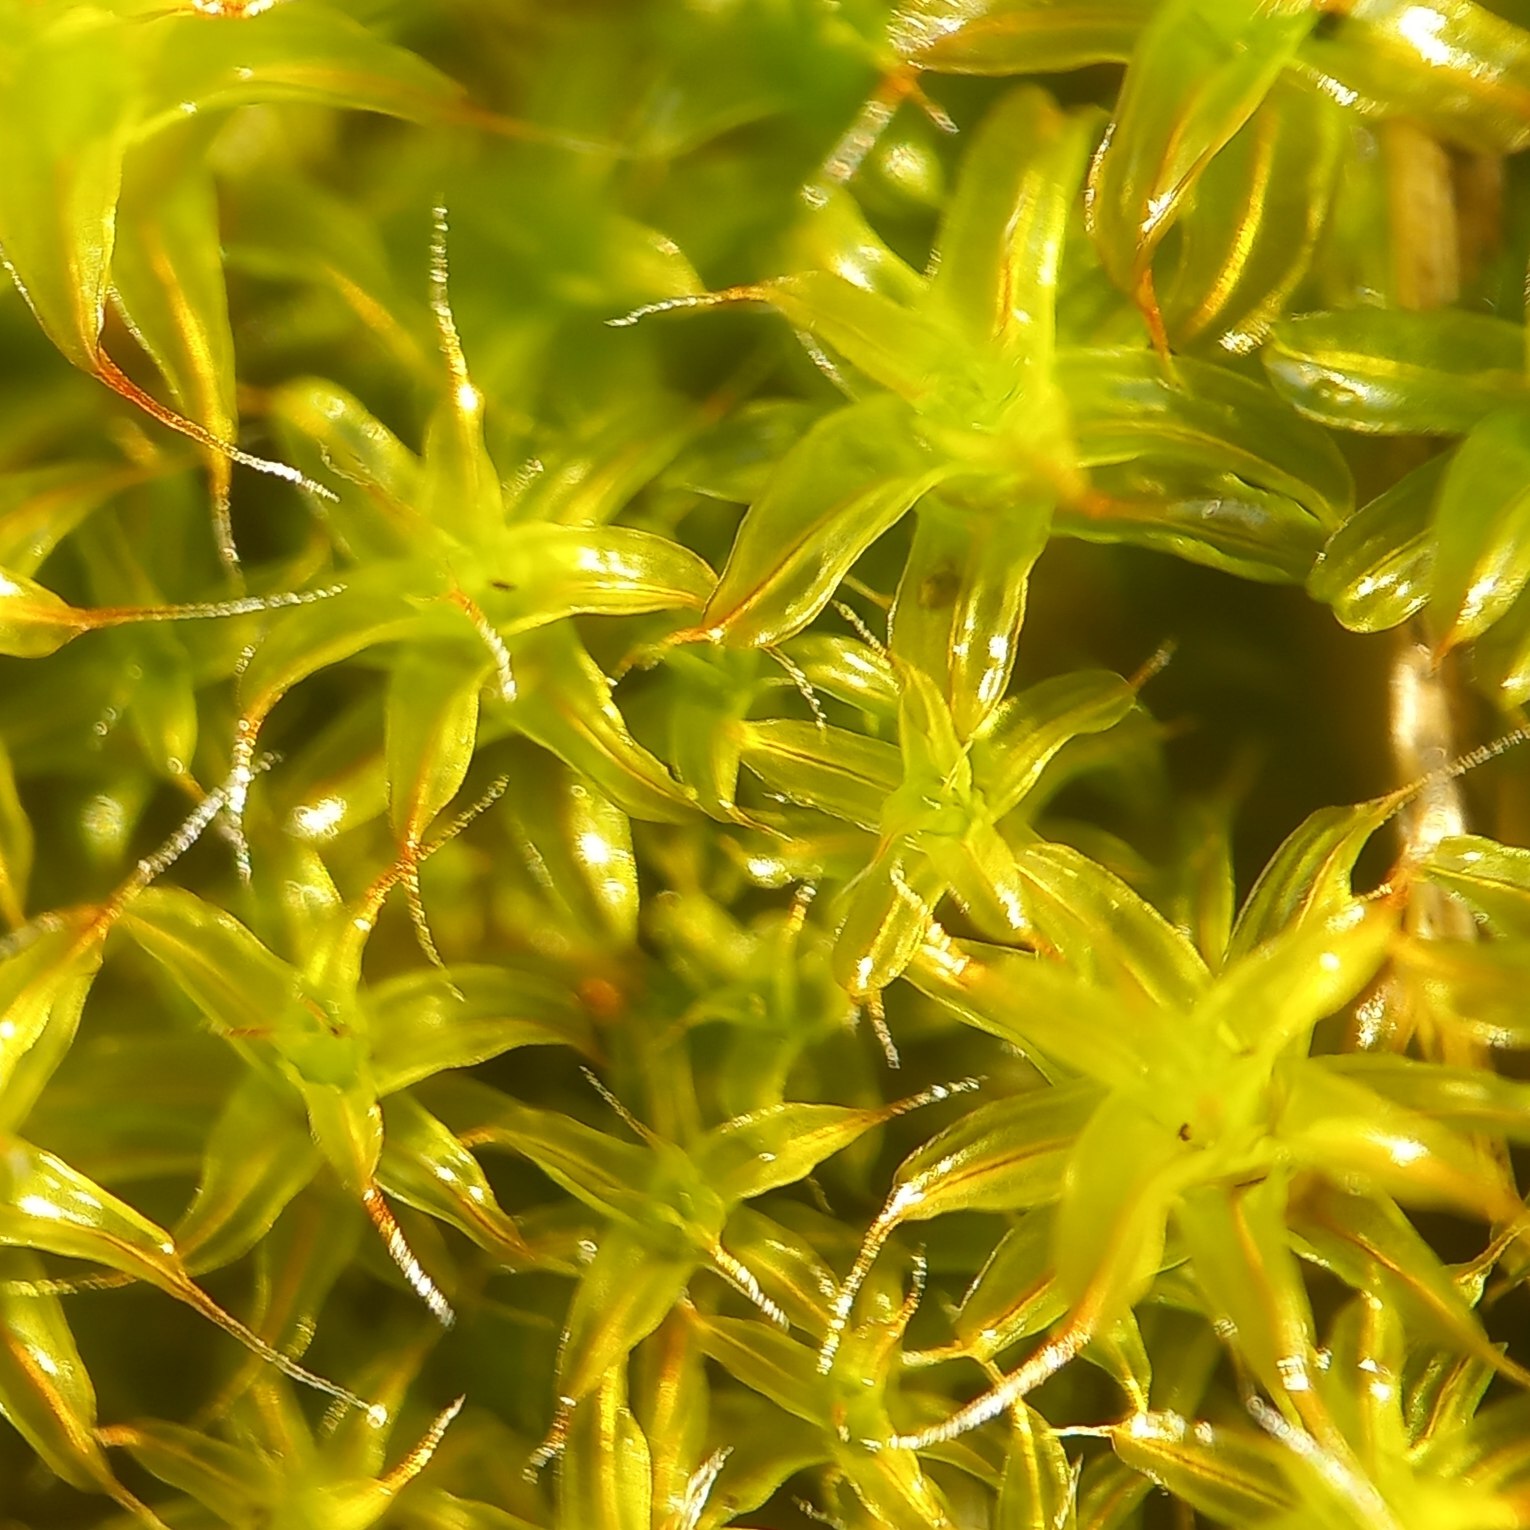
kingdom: Plantae
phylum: Bryophyta
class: Bryopsida
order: Pottiales
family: Pottiaceae
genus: Syntrichia
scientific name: Syntrichia ruralis
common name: Spidsbladet hårstjerne
